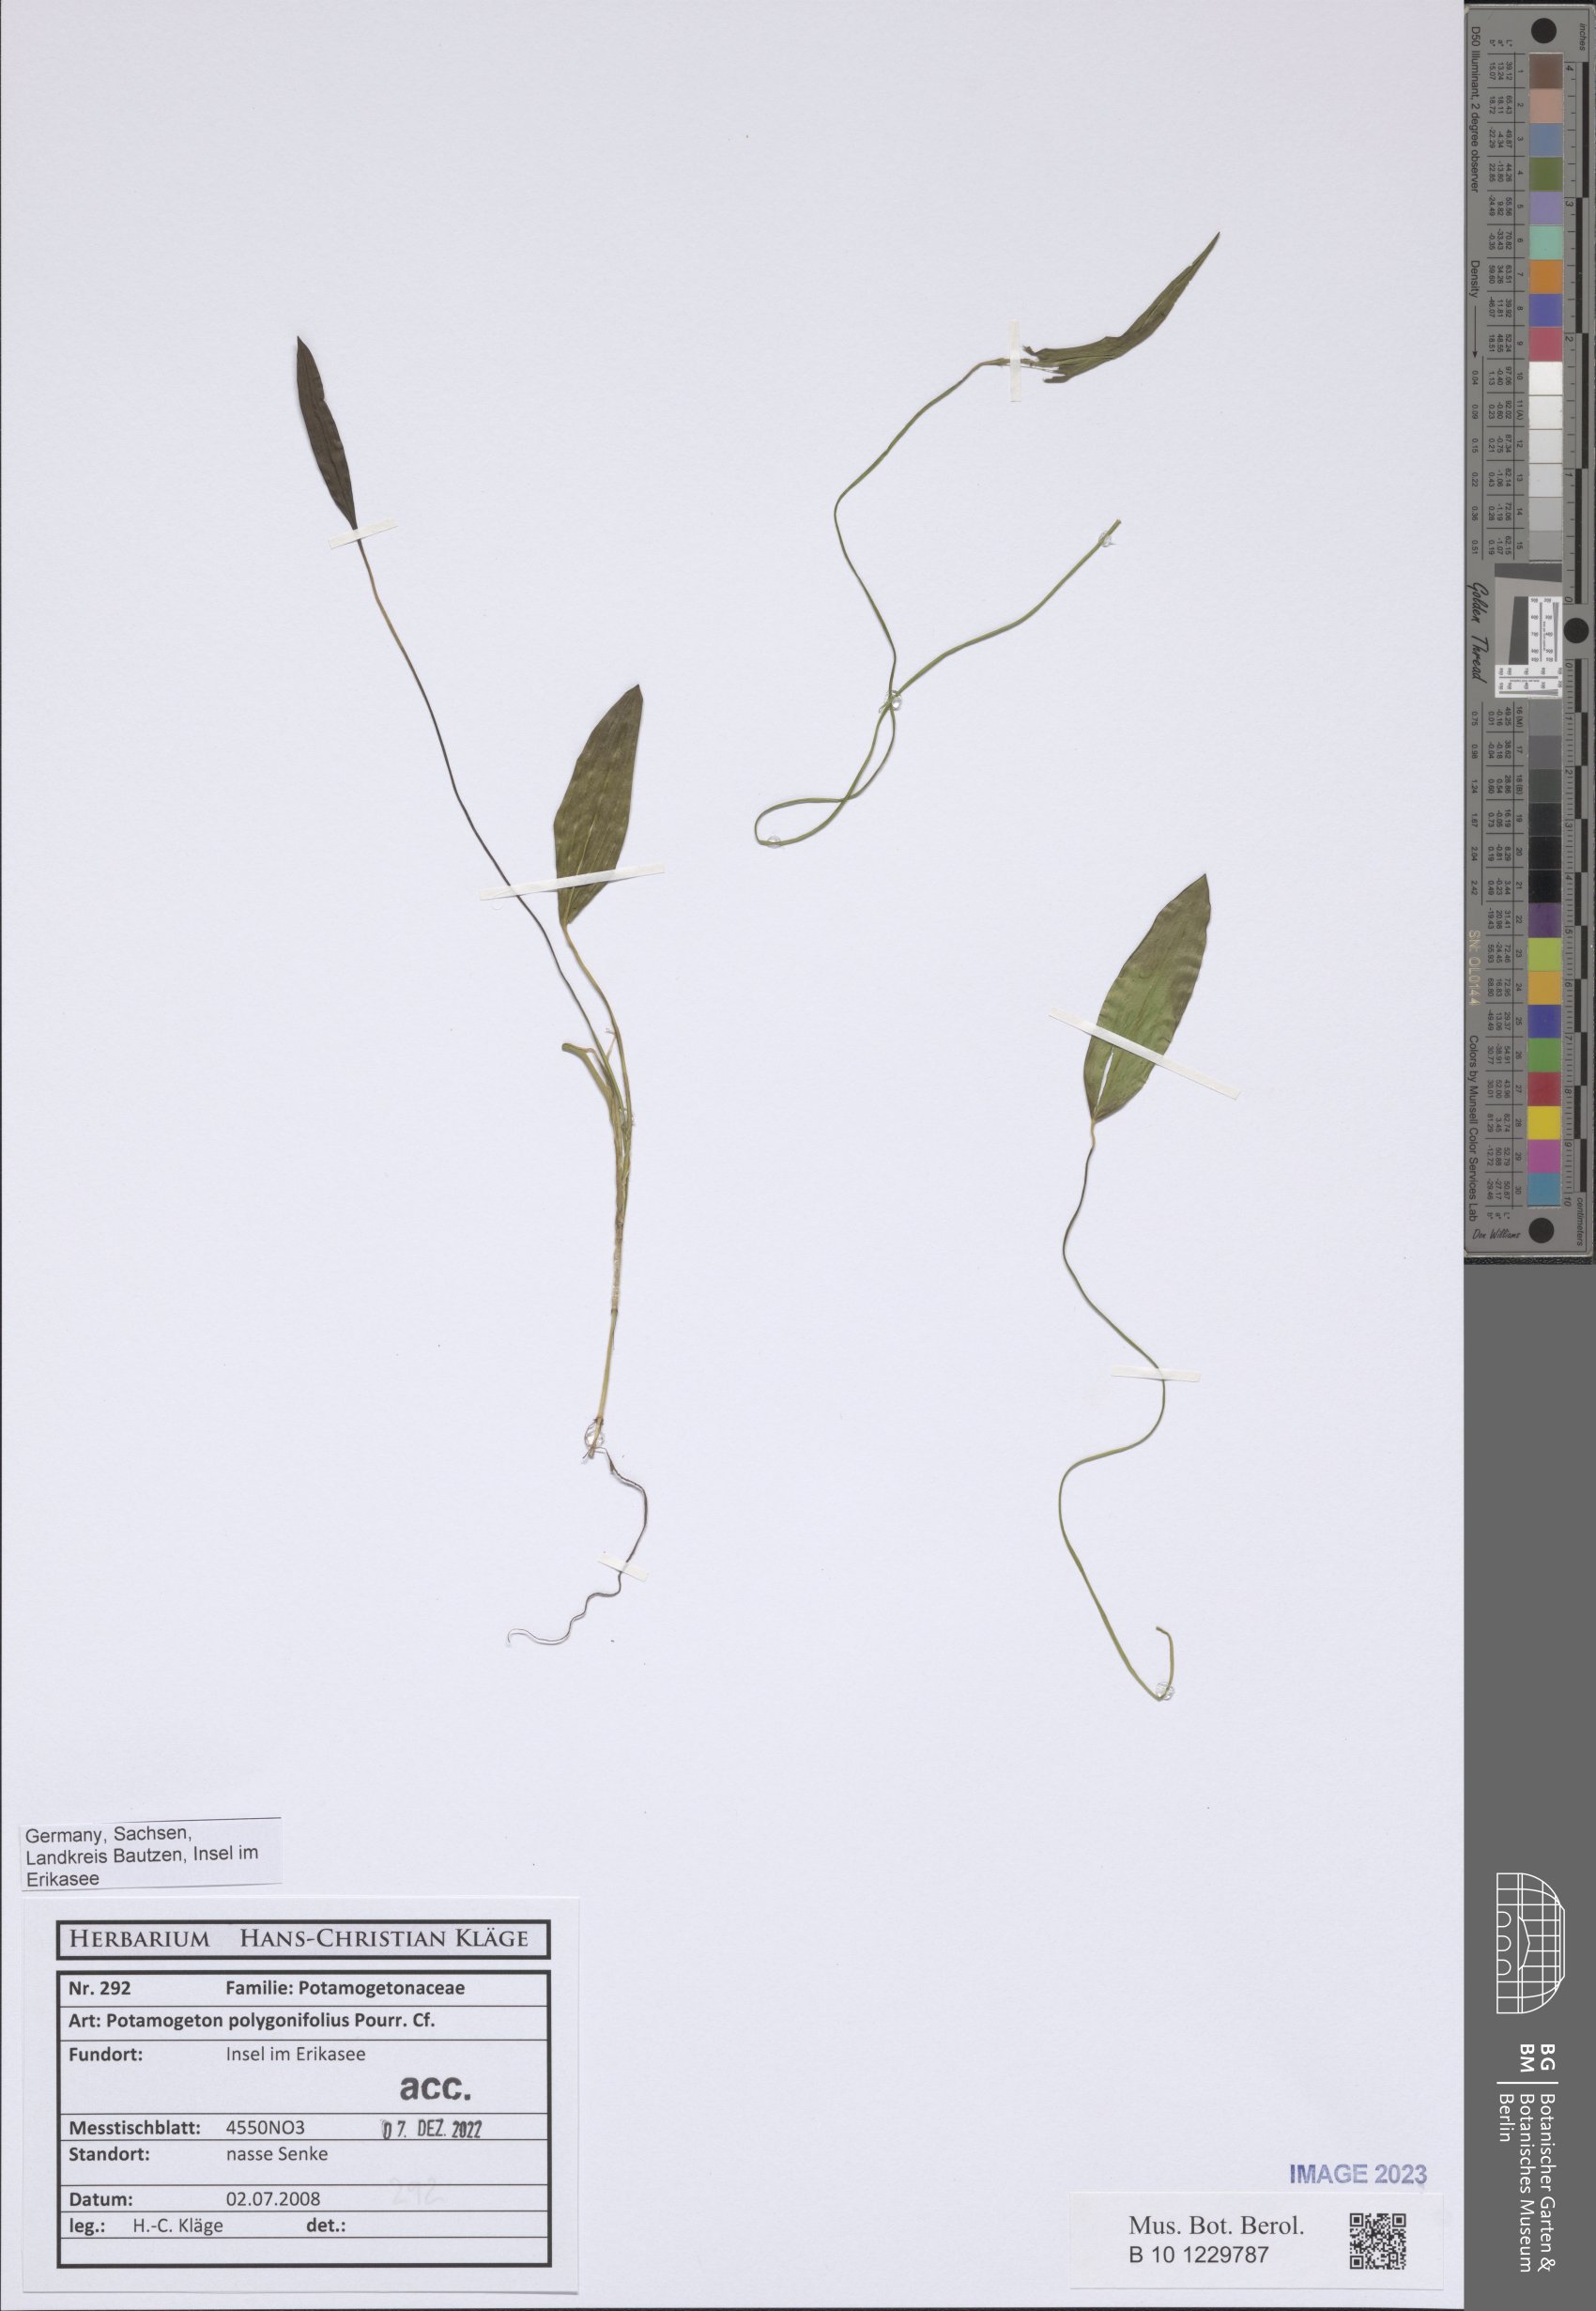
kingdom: Plantae
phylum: Tracheophyta
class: Liliopsida
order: Alismatales
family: Potamogetonaceae
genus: Potamogeton
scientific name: Potamogeton polygonifolius
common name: Bog pondweed
